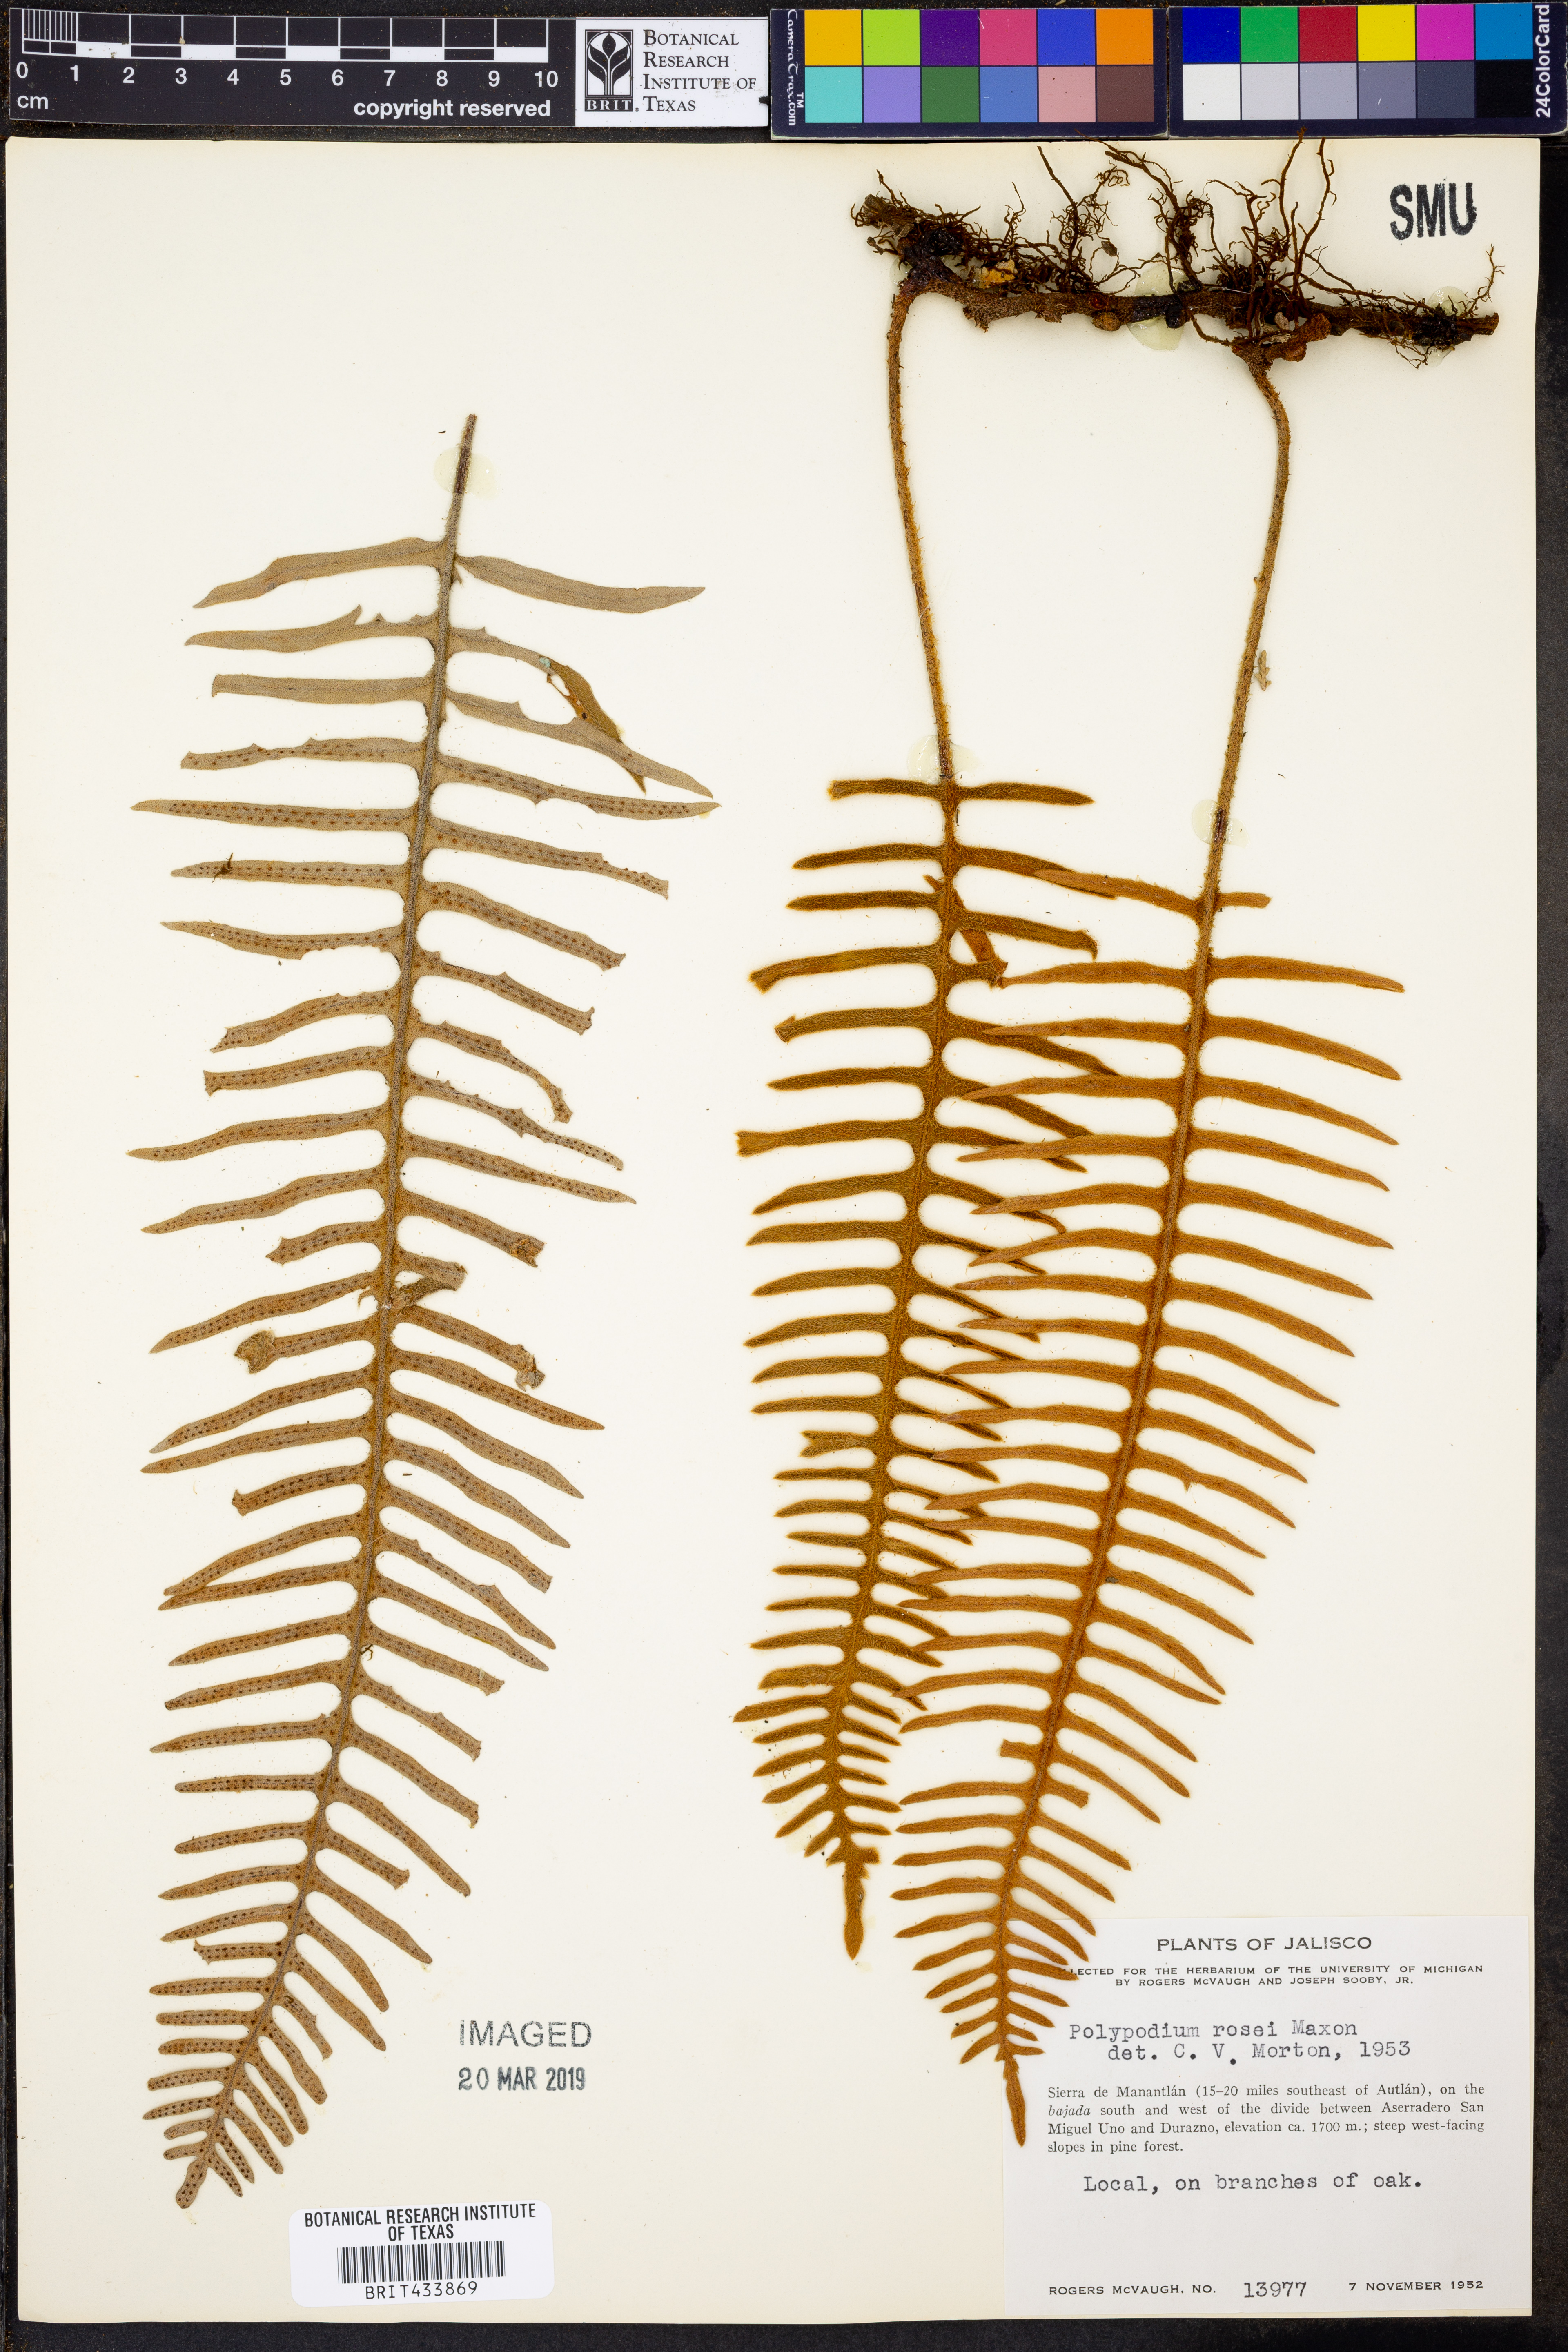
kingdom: Plantae
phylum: Tracheophyta
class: Polypodiopsida
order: Polypodiales
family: Polypodiaceae
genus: Pleopeltis
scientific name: Pleopeltis rosei
